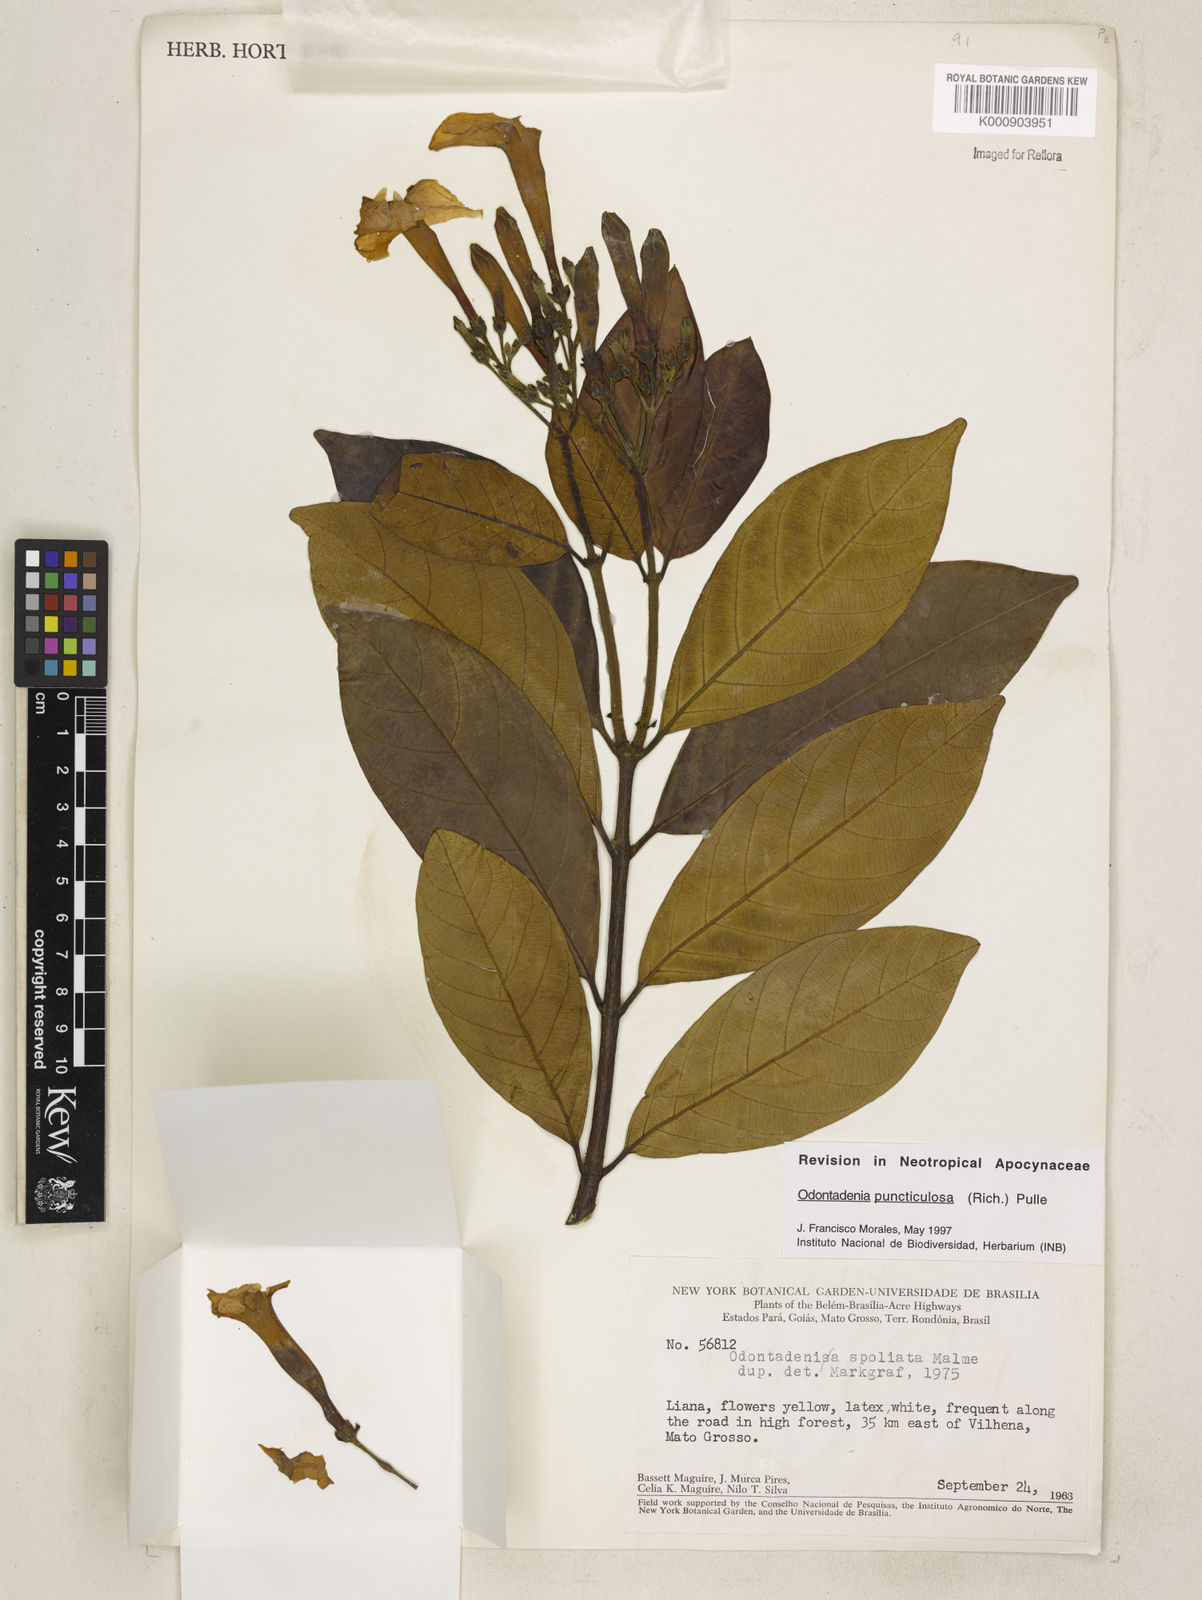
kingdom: Plantae
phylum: Tracheophyta
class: Magnoliopsida
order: Gentianales
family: Apocynaceae
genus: Odontadenia
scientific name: Odontadenia puncticulosa
